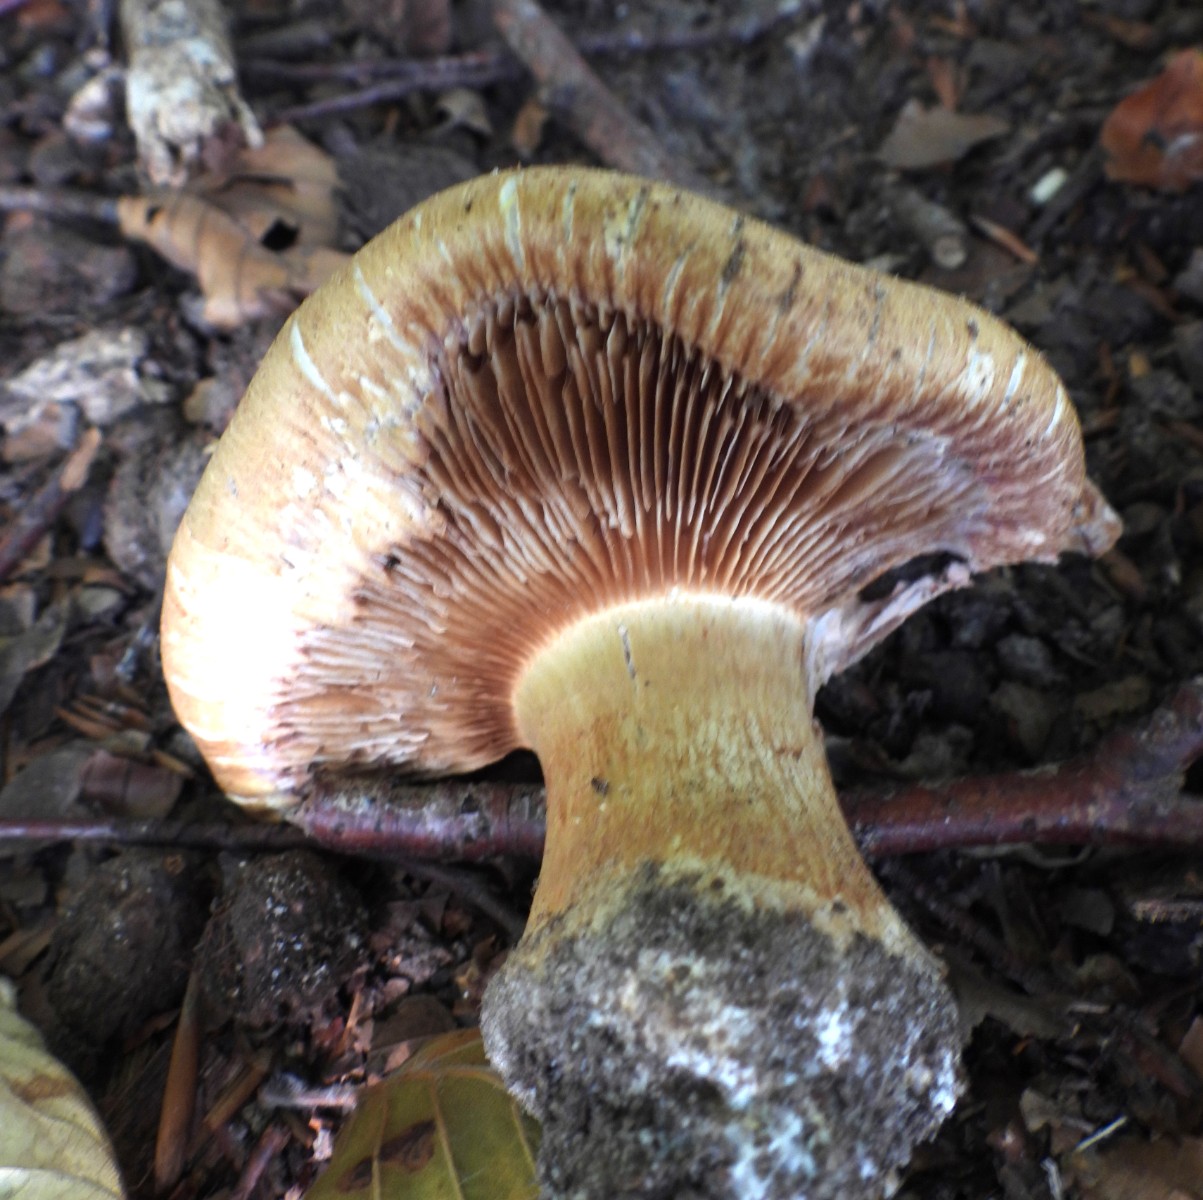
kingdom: Fungi
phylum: Basidiomycota
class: Agaricomycetes
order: Agaricales
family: Cortinariaceae
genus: Phlegmacium
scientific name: Phlegmacium
